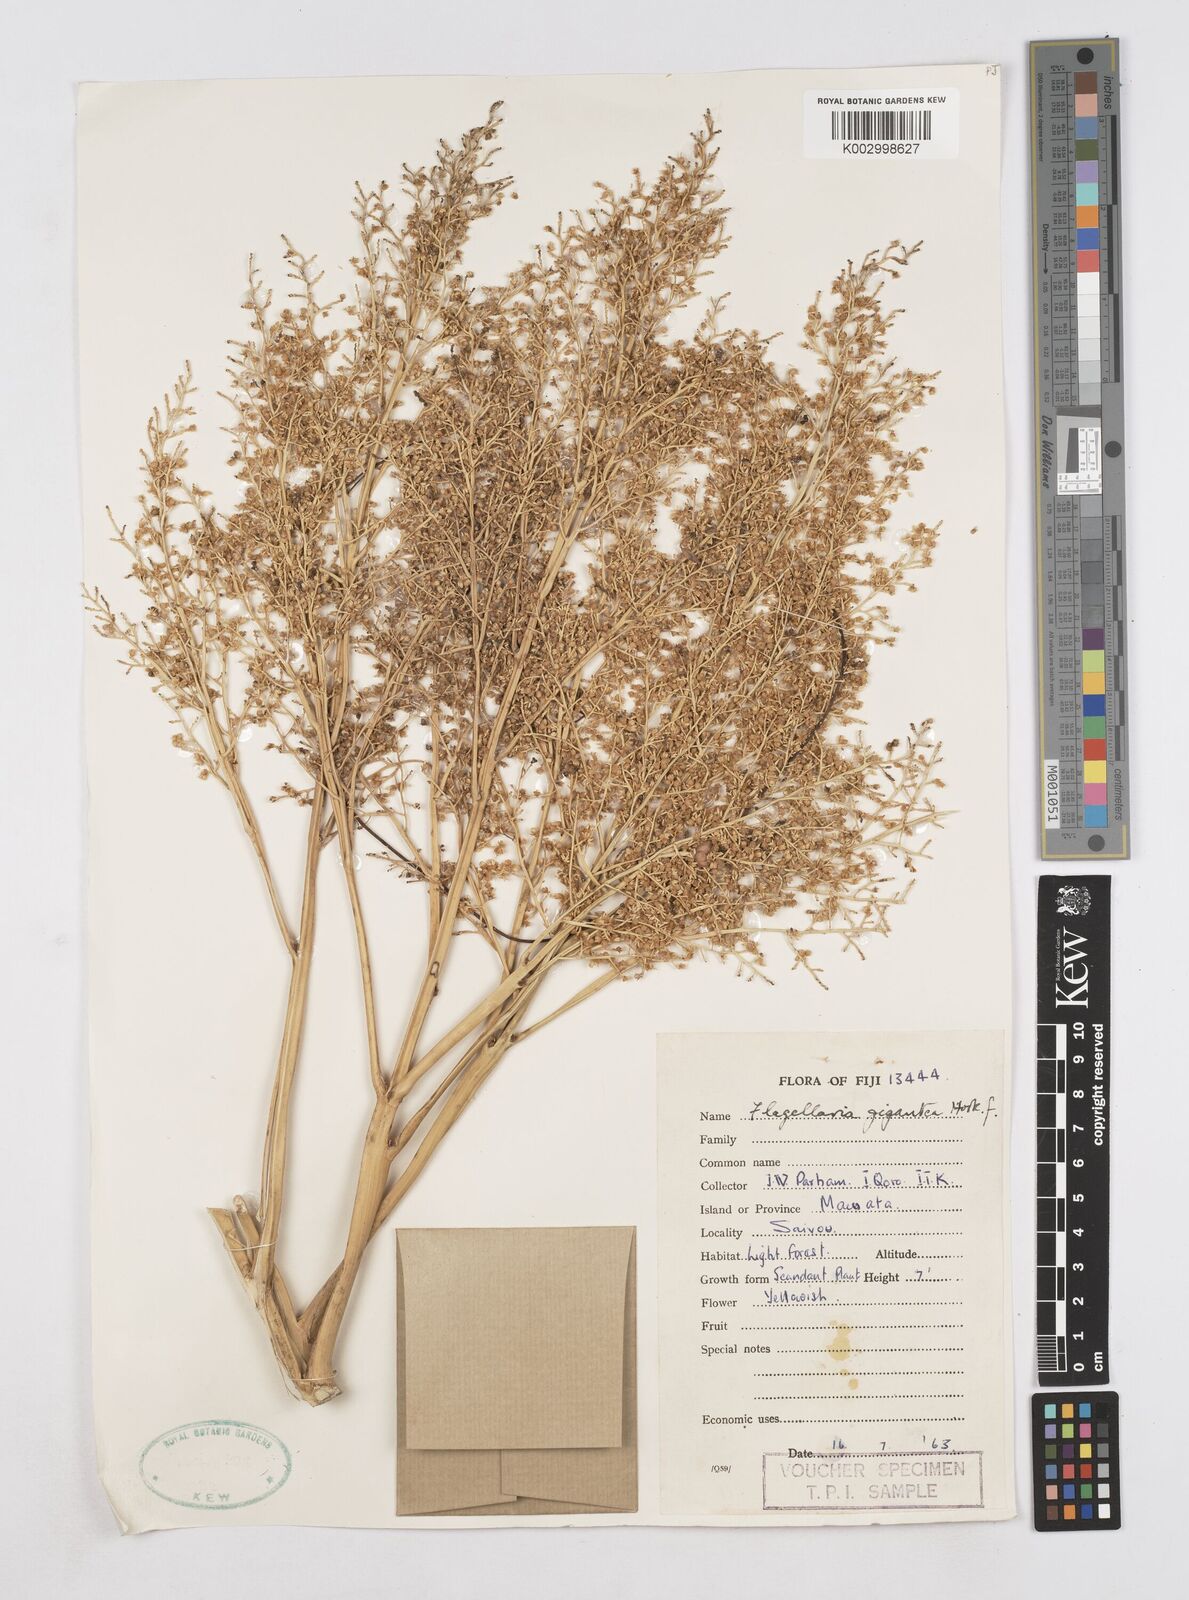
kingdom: Plantae
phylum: Tracheophyta
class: Liliopsida
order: Poales
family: Flagellariaceae
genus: Flagellaria
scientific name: Flagellaria gigantea
